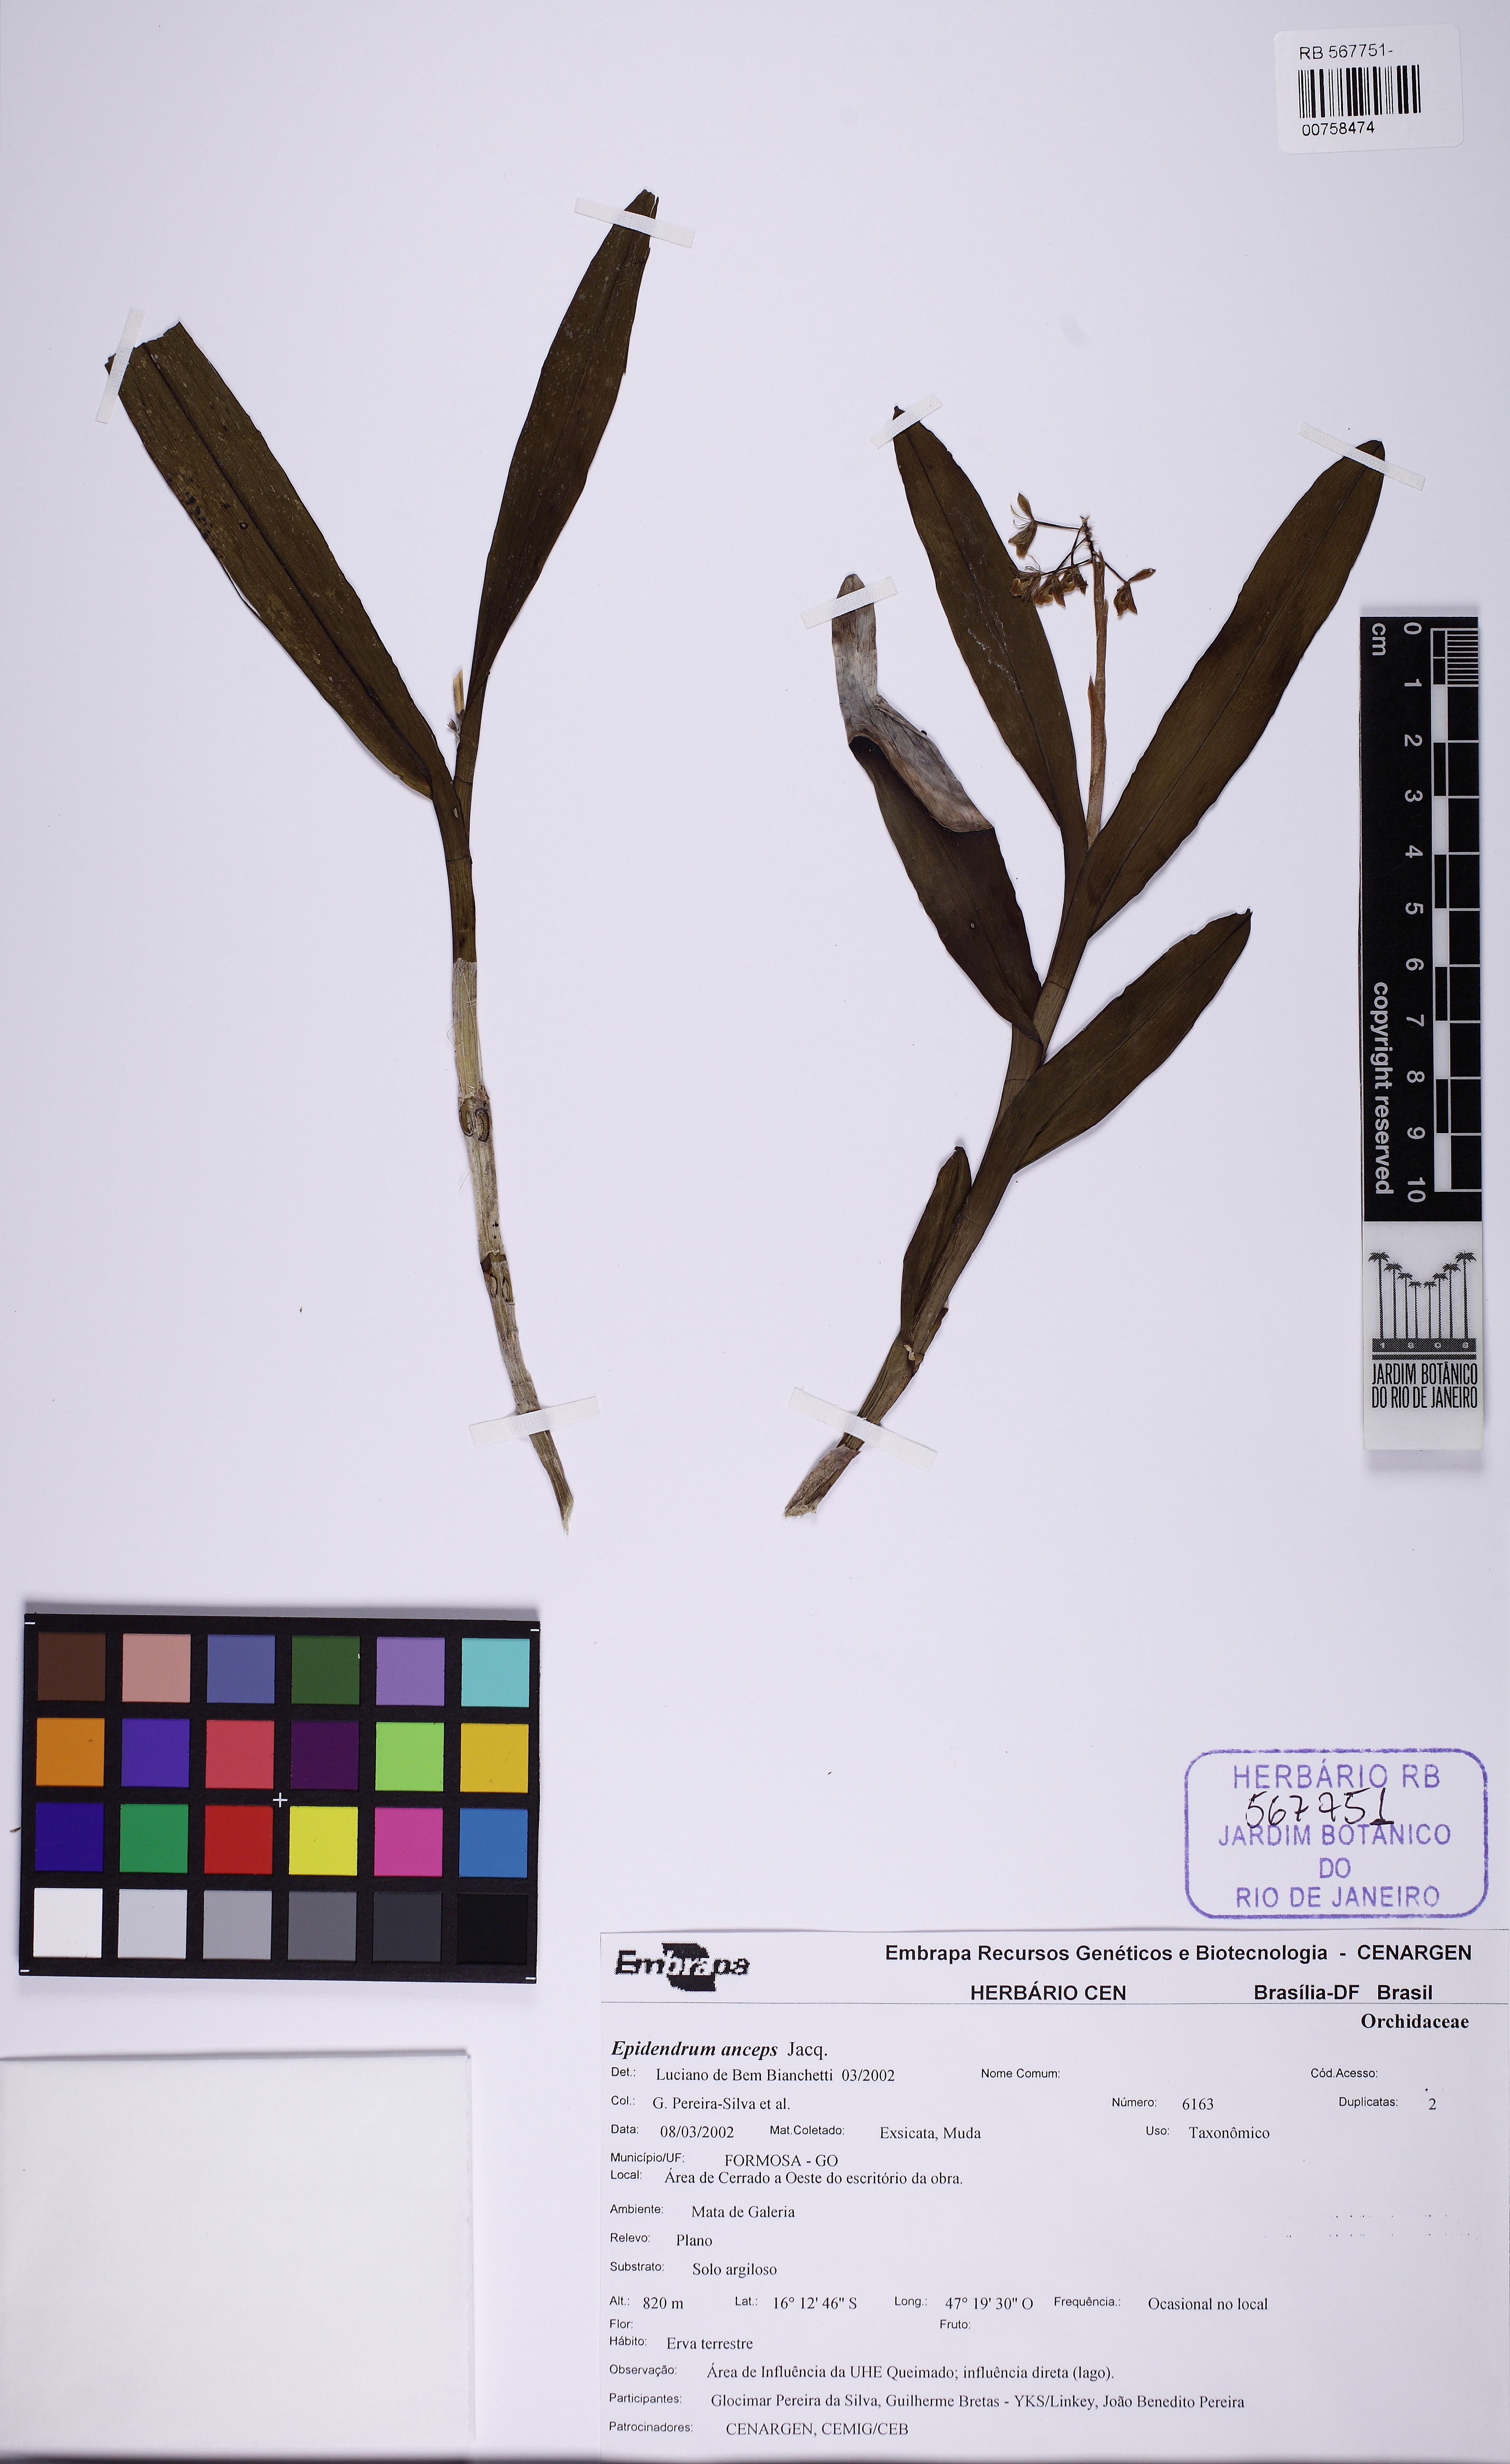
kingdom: Plantae
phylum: Tracheophyta
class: Liliopsida
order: Asparagales
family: Orchidaceae
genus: Epidendrum
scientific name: Epidendrum anceps
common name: Brown-flower butterfly orchid
